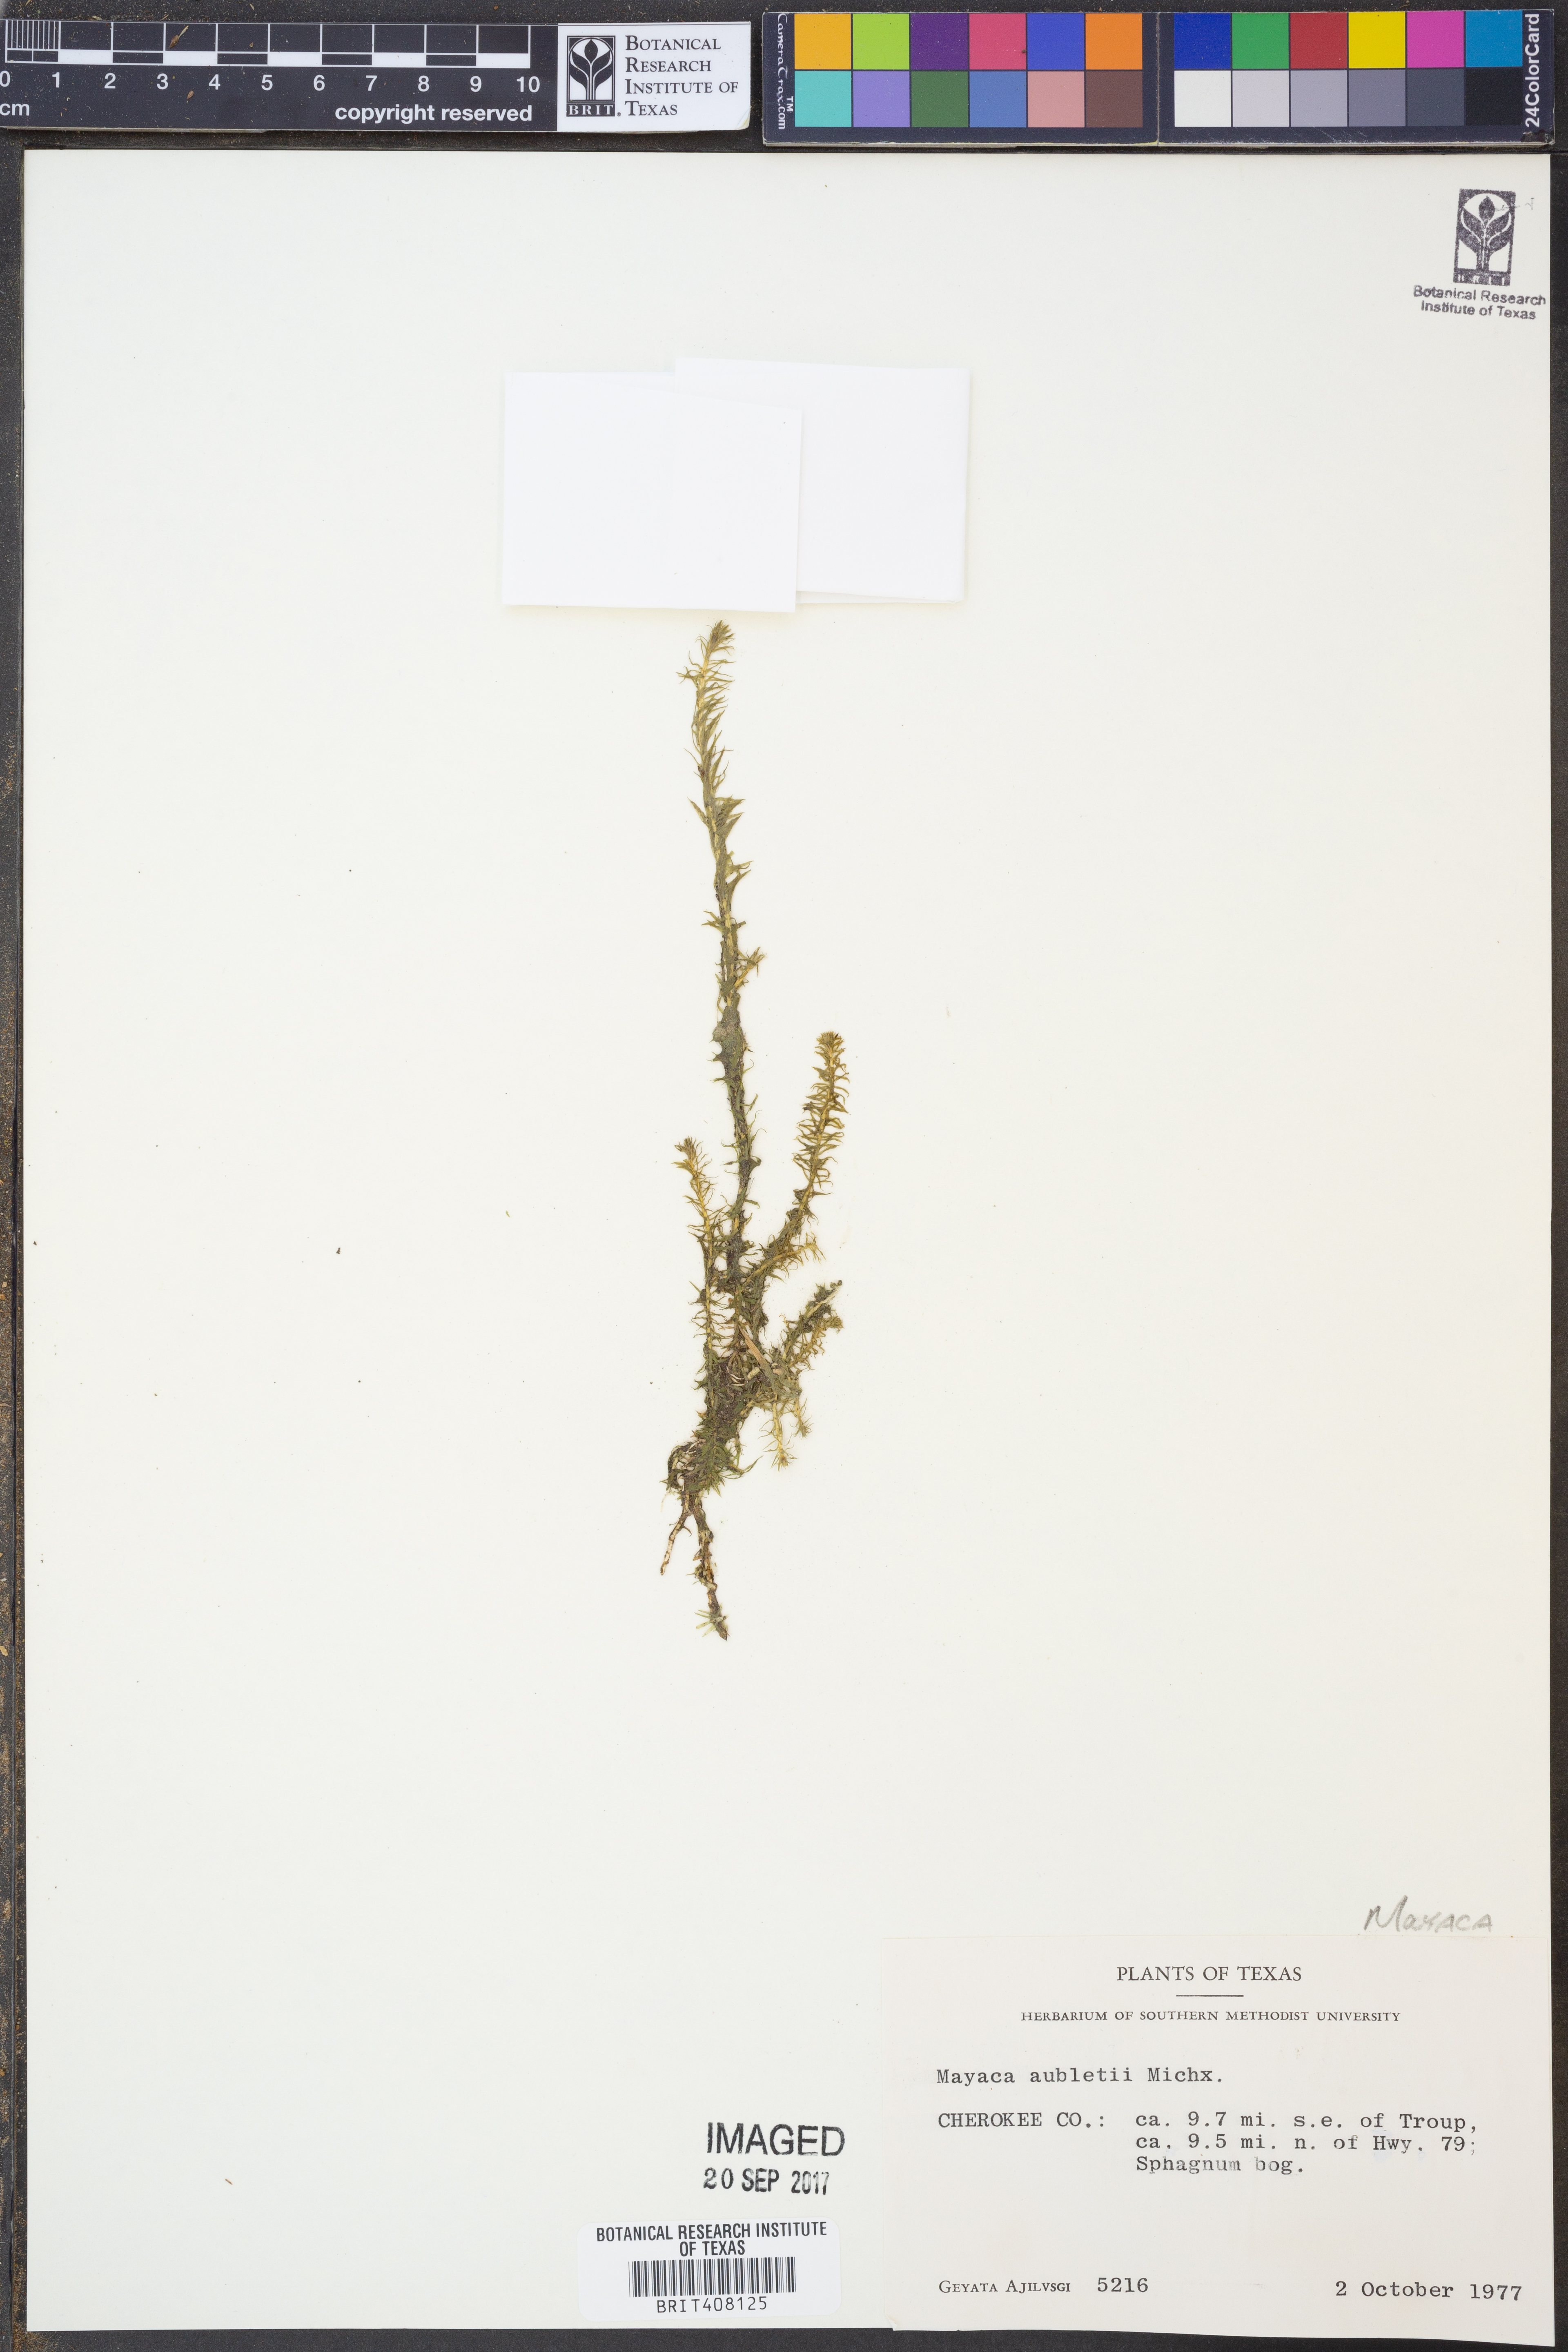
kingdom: Plantae
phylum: Tracheophyta
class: Liliopsida
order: Poales
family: Mayacaceae
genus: Mayaca
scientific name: Mayaca fluviatilis
